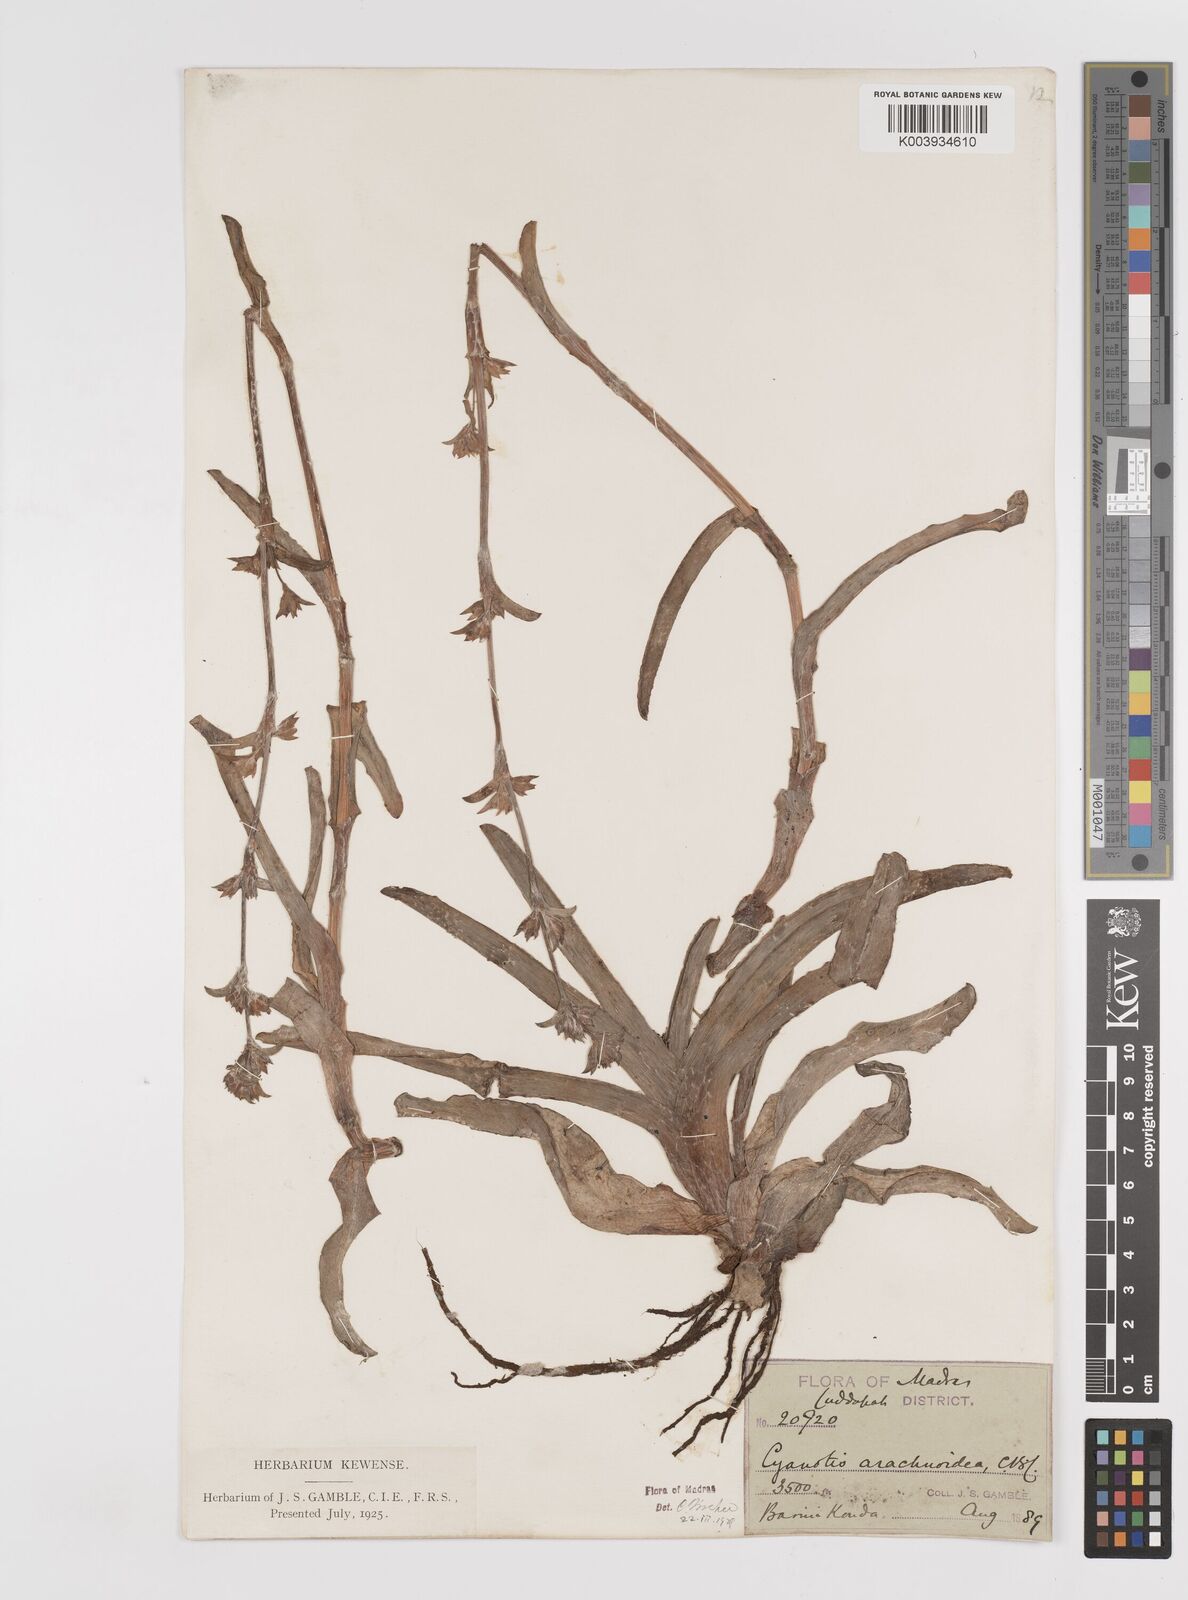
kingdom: Plantae
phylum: Tracheophyta
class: Liliopsida
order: Commelinales
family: Commelinaceae
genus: Cyanotis
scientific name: Cyanotis arachnoidea
